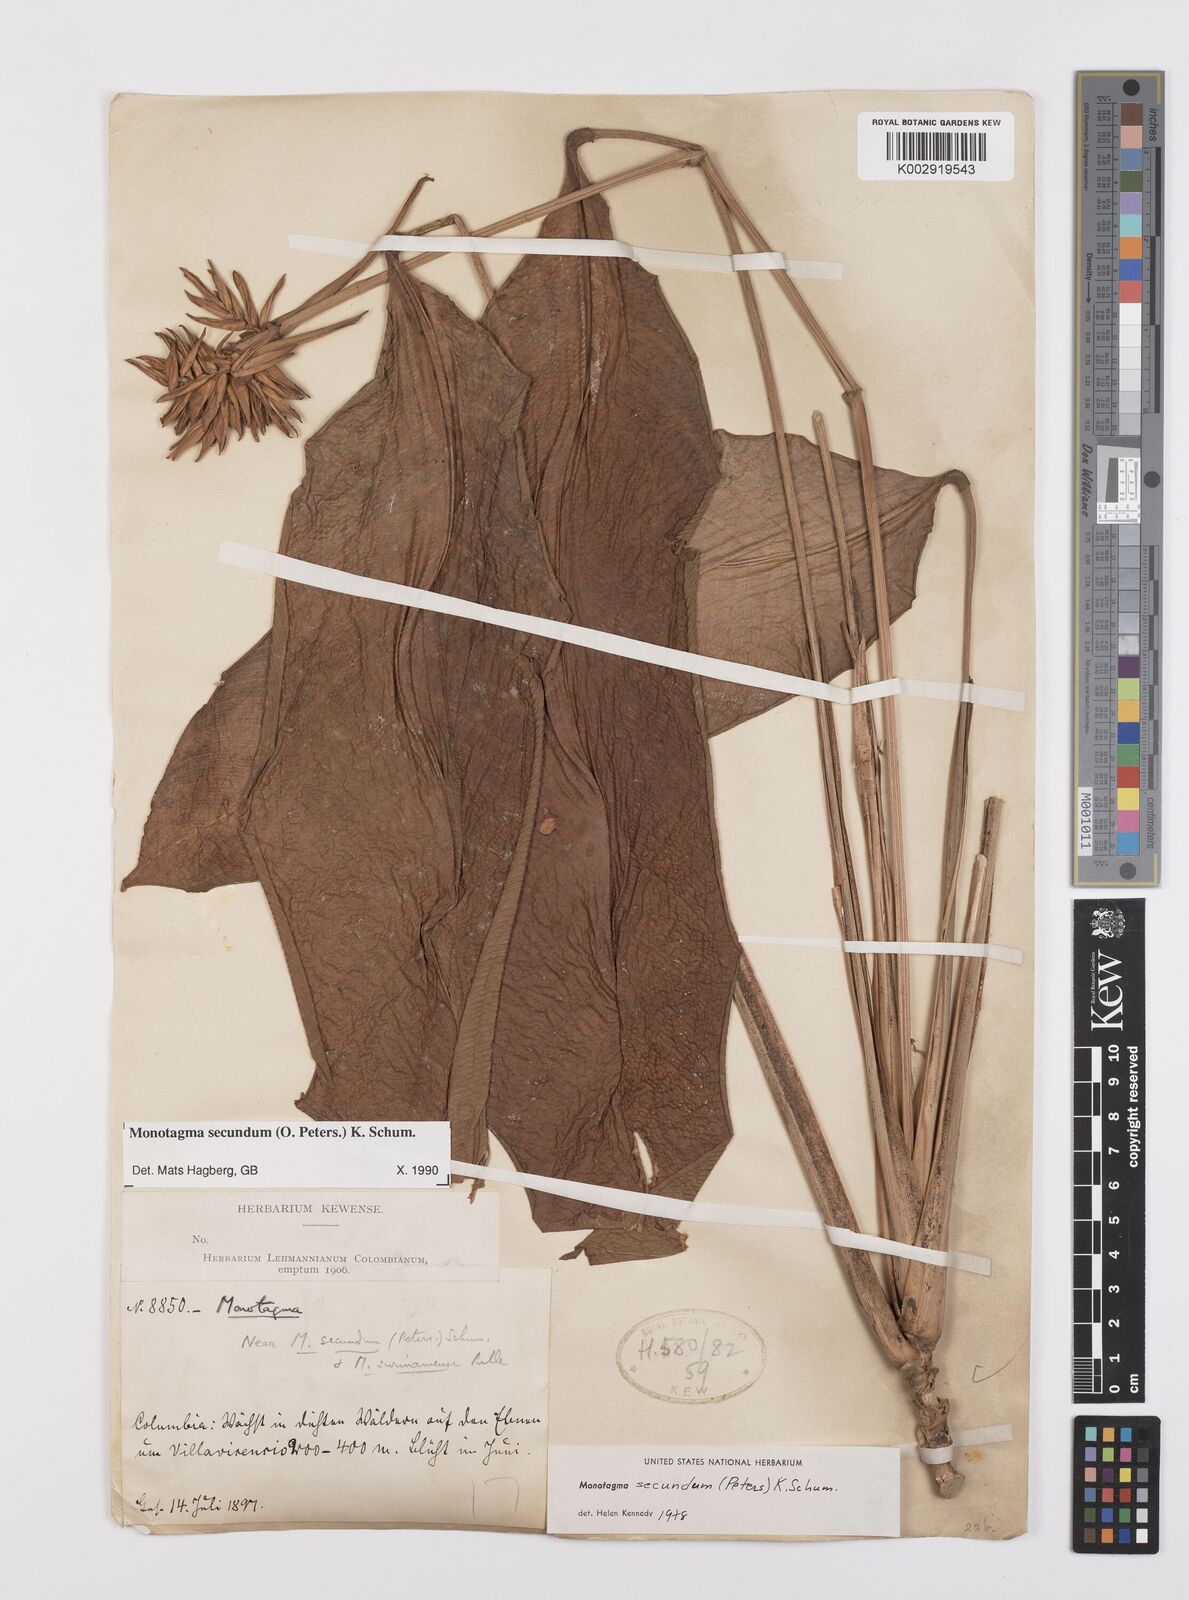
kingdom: Plantae
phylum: Tracheophyta
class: Liliopsida
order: Zingiberales
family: Marantaceae
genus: Monotagma
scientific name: Monotagma secundum
